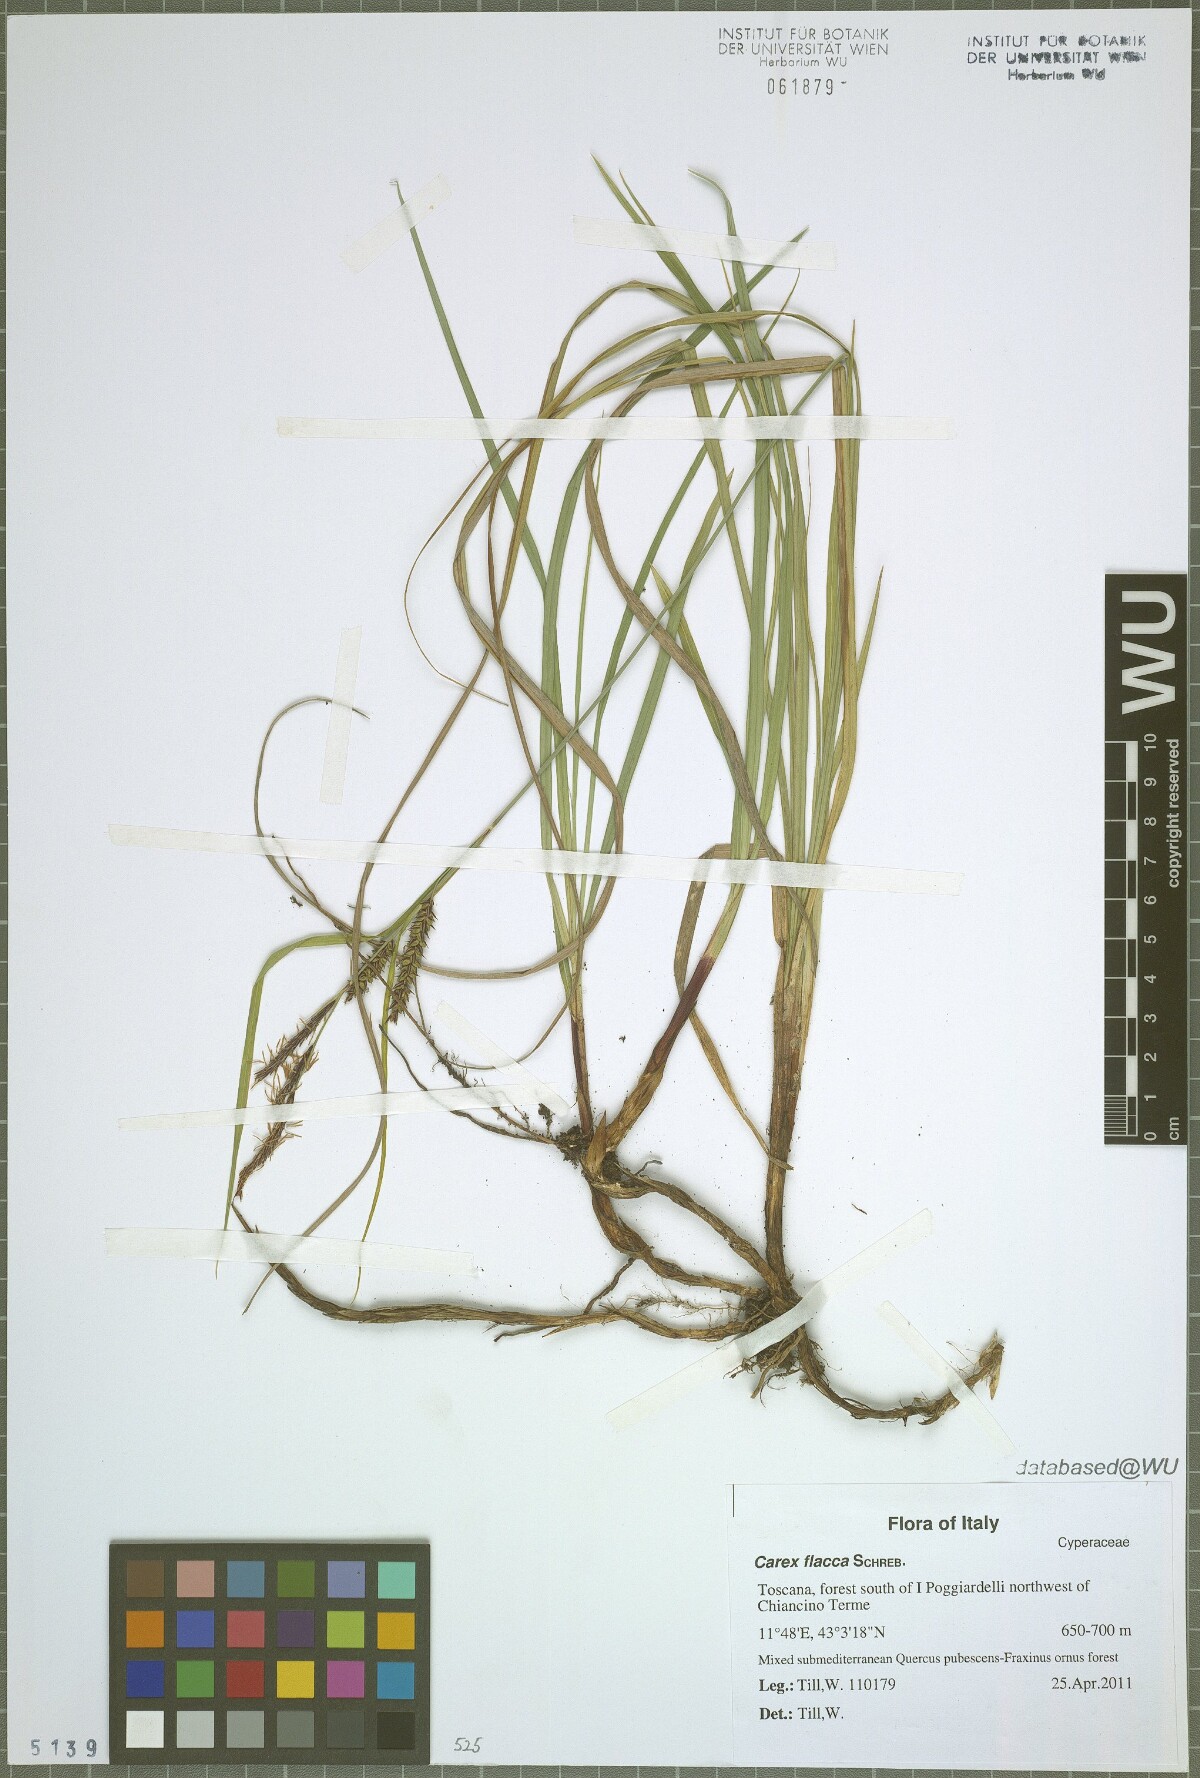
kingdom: Plantae
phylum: Tracheophyta
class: Liliopsida
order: Poales
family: Cyperaceae
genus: Carex
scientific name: Carex flacca
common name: Glaucous sedge
